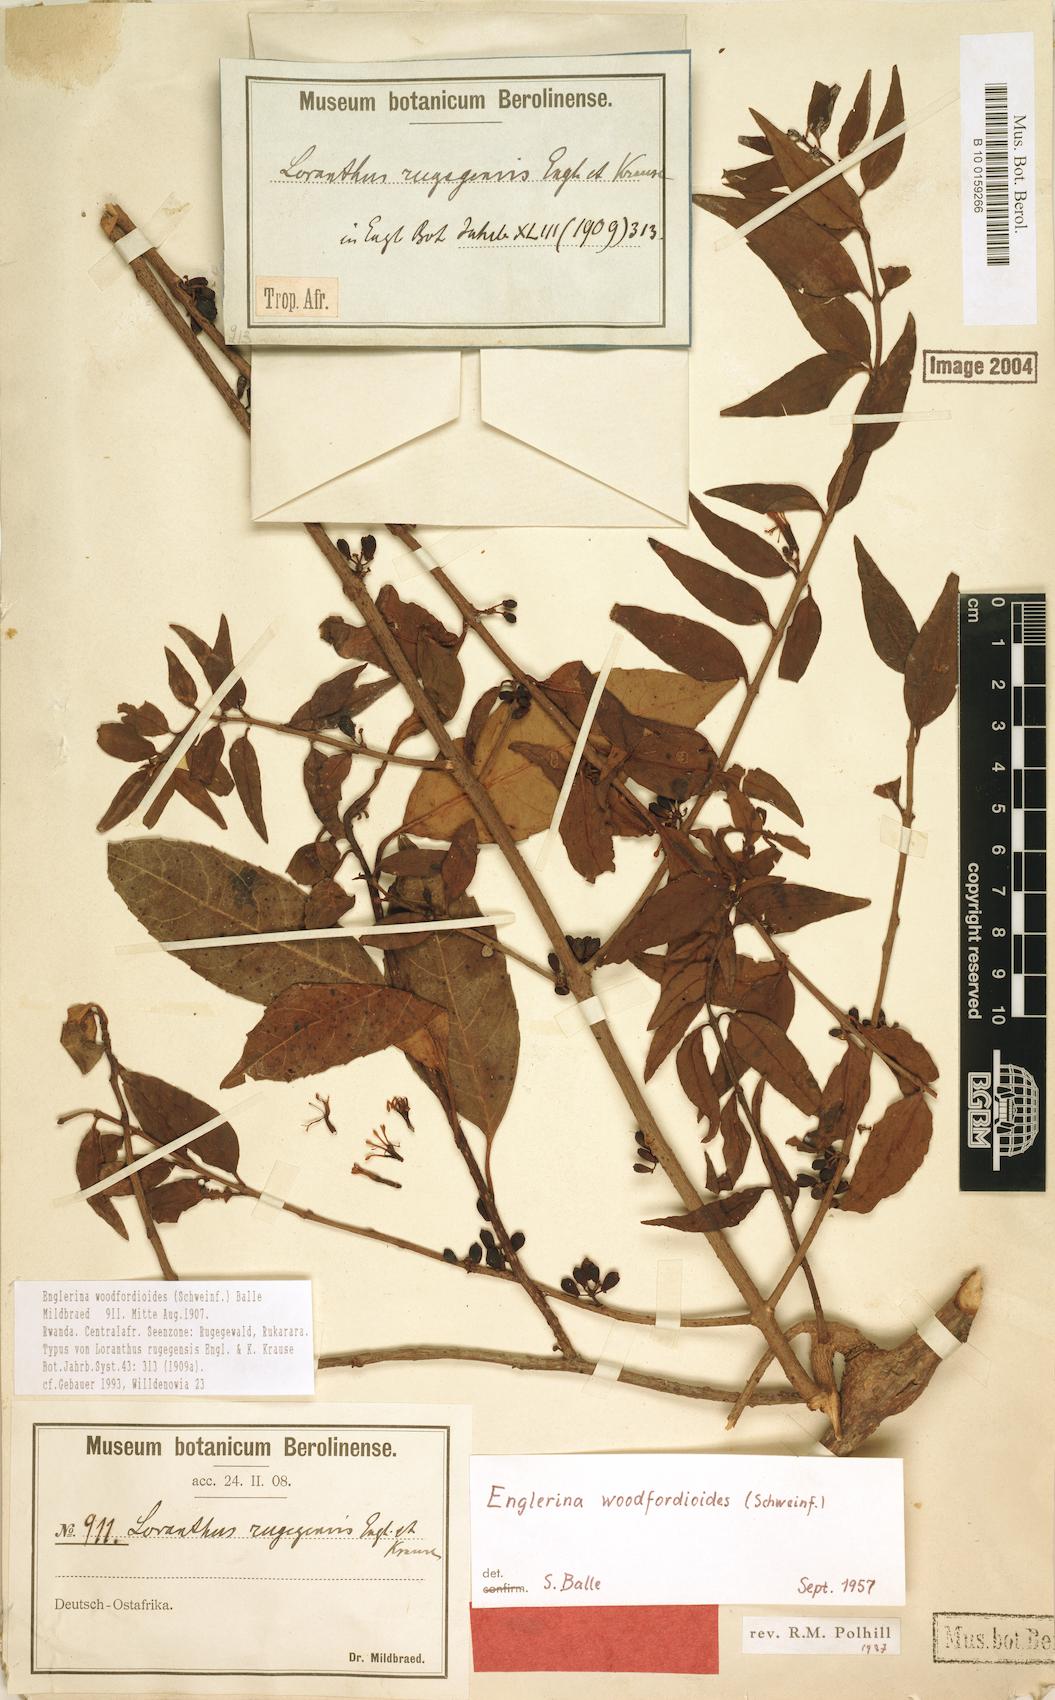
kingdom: Plantae
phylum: Tracheophyta
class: Magnoliopsida
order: Santalales
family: Loranthaceae
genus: Englerina
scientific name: Englerina woodfordioides
